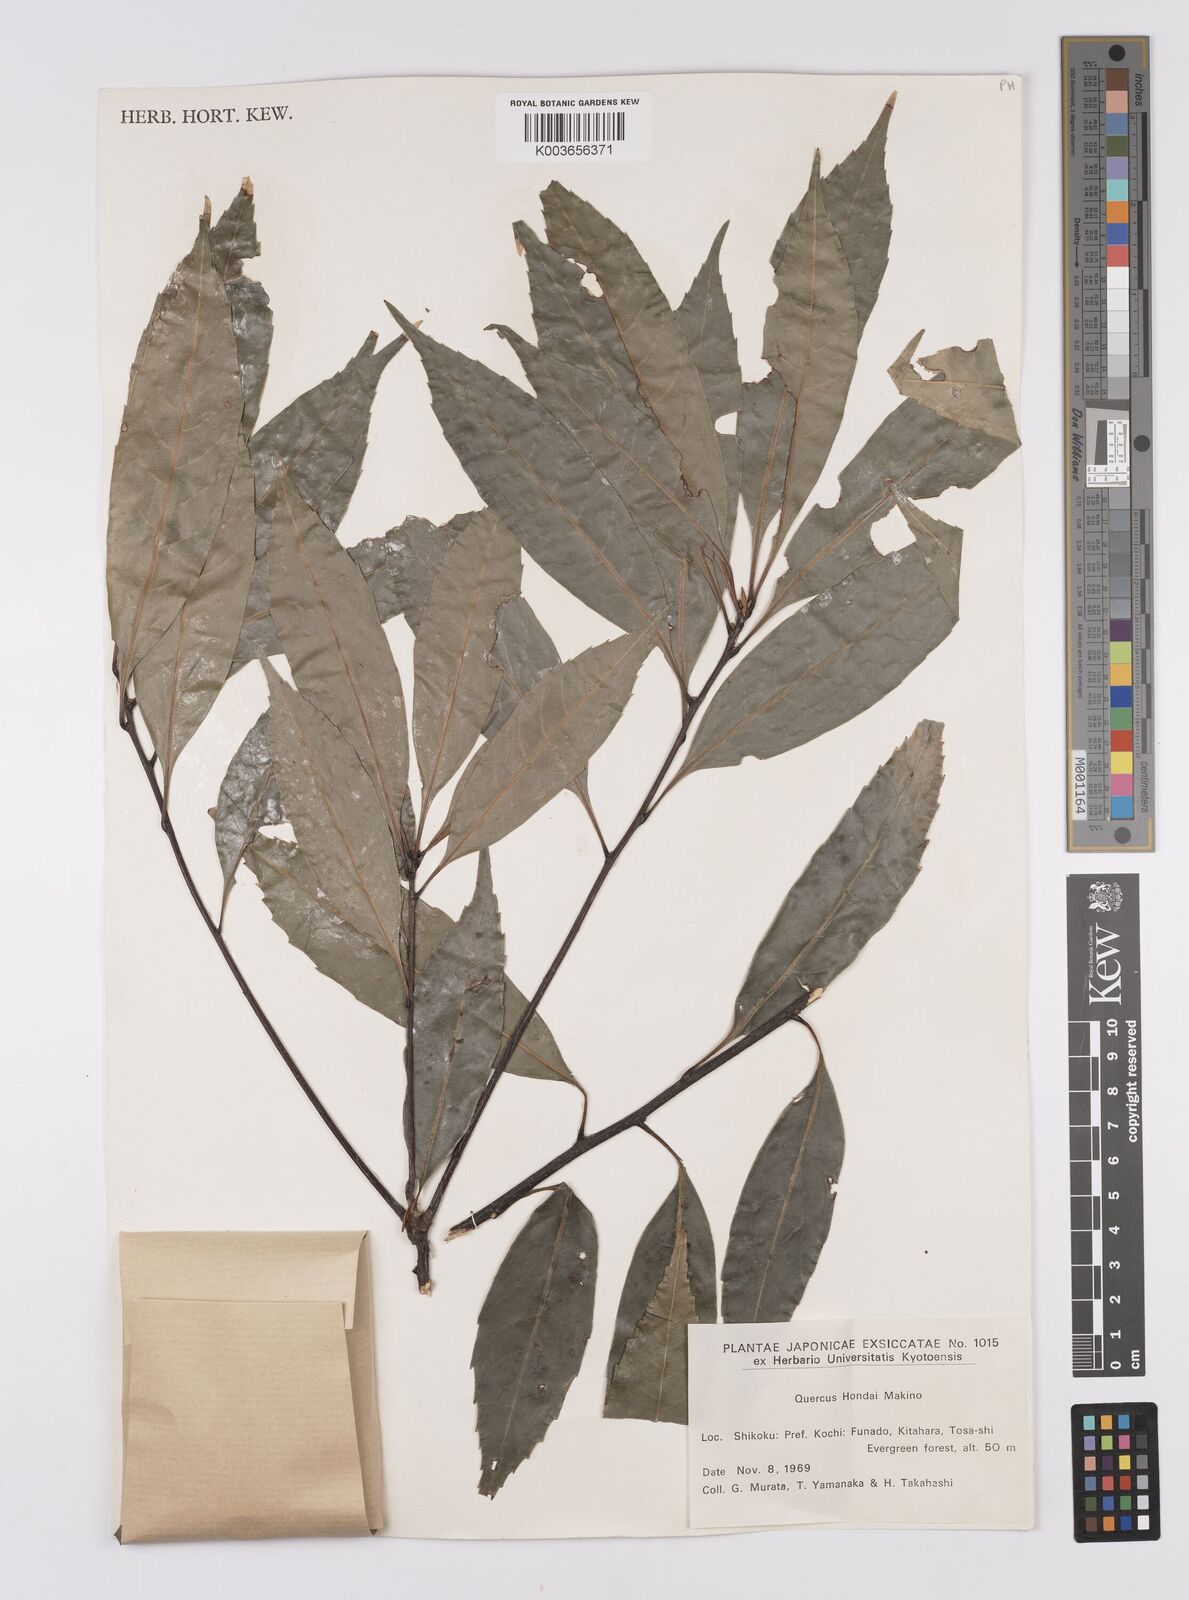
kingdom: Plantae
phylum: Tracheophyta
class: Magnoliopsida
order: Fagales
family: Fagaceae
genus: Quercus
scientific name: Quercus hondae
